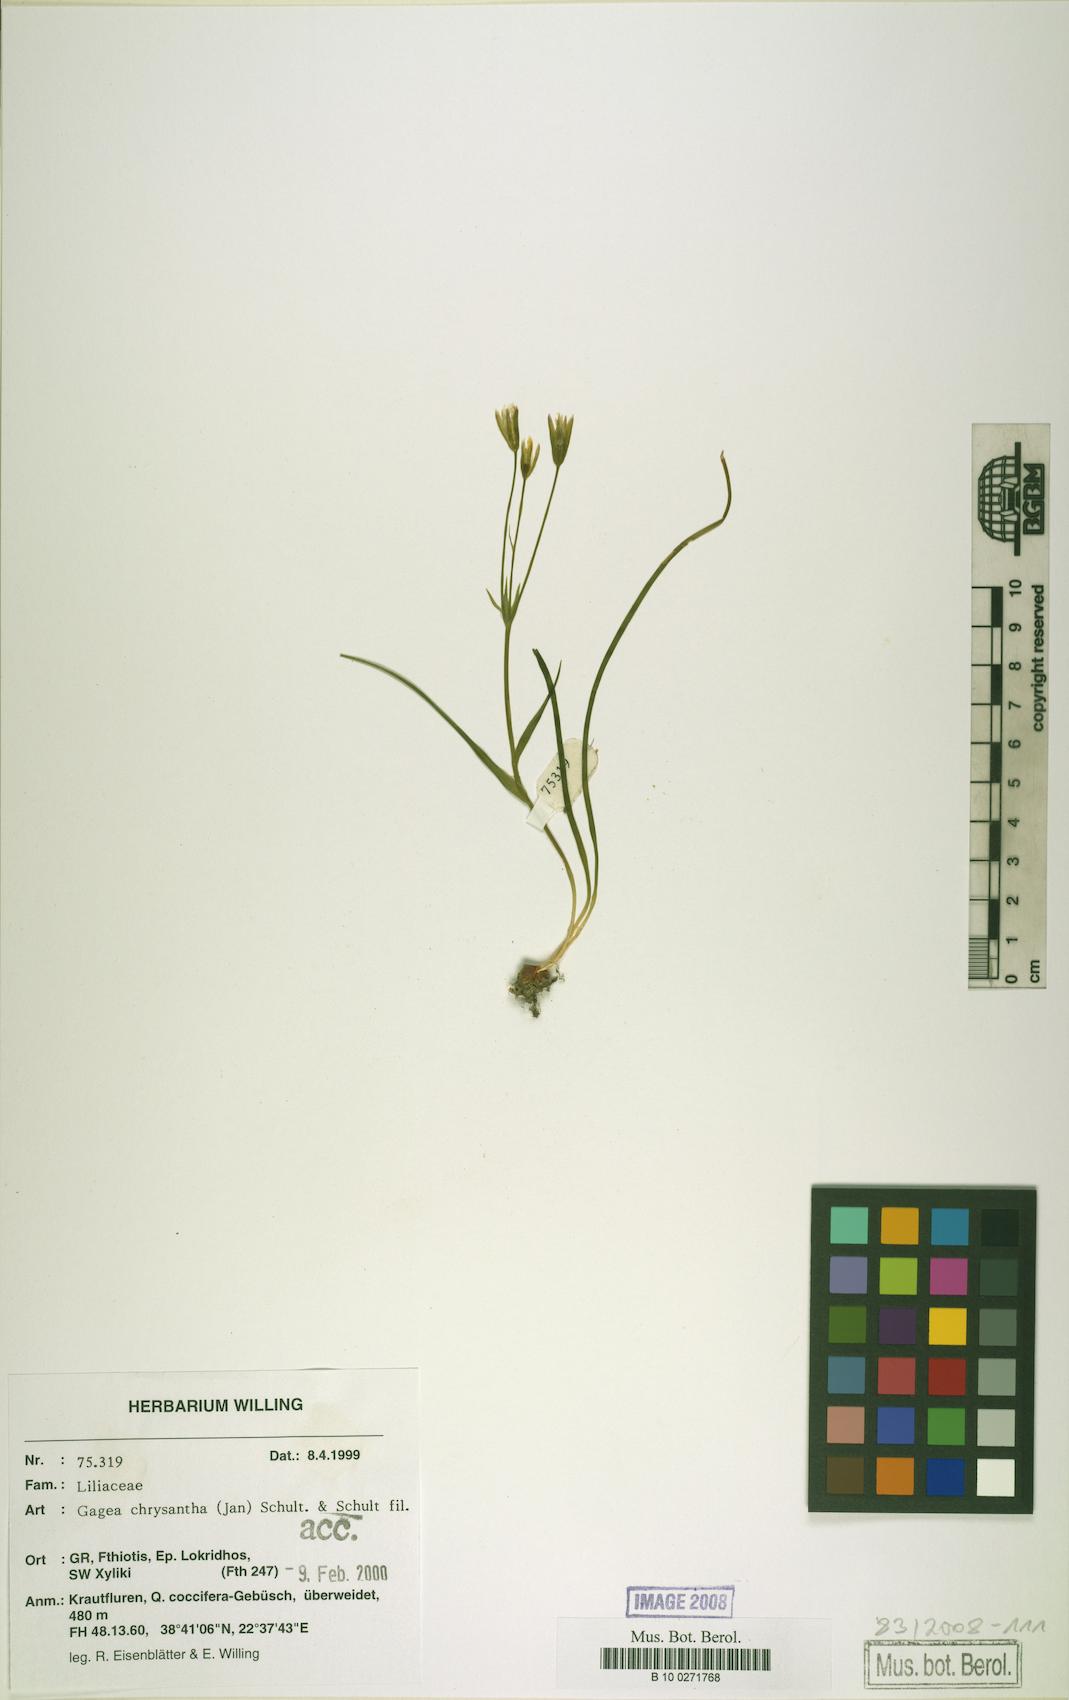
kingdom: Plantae
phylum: Tracheophyta
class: Liliopsida
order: Liliales
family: Liliaceae
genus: Gagea
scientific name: Gagea chrysantha
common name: Golden gagea
